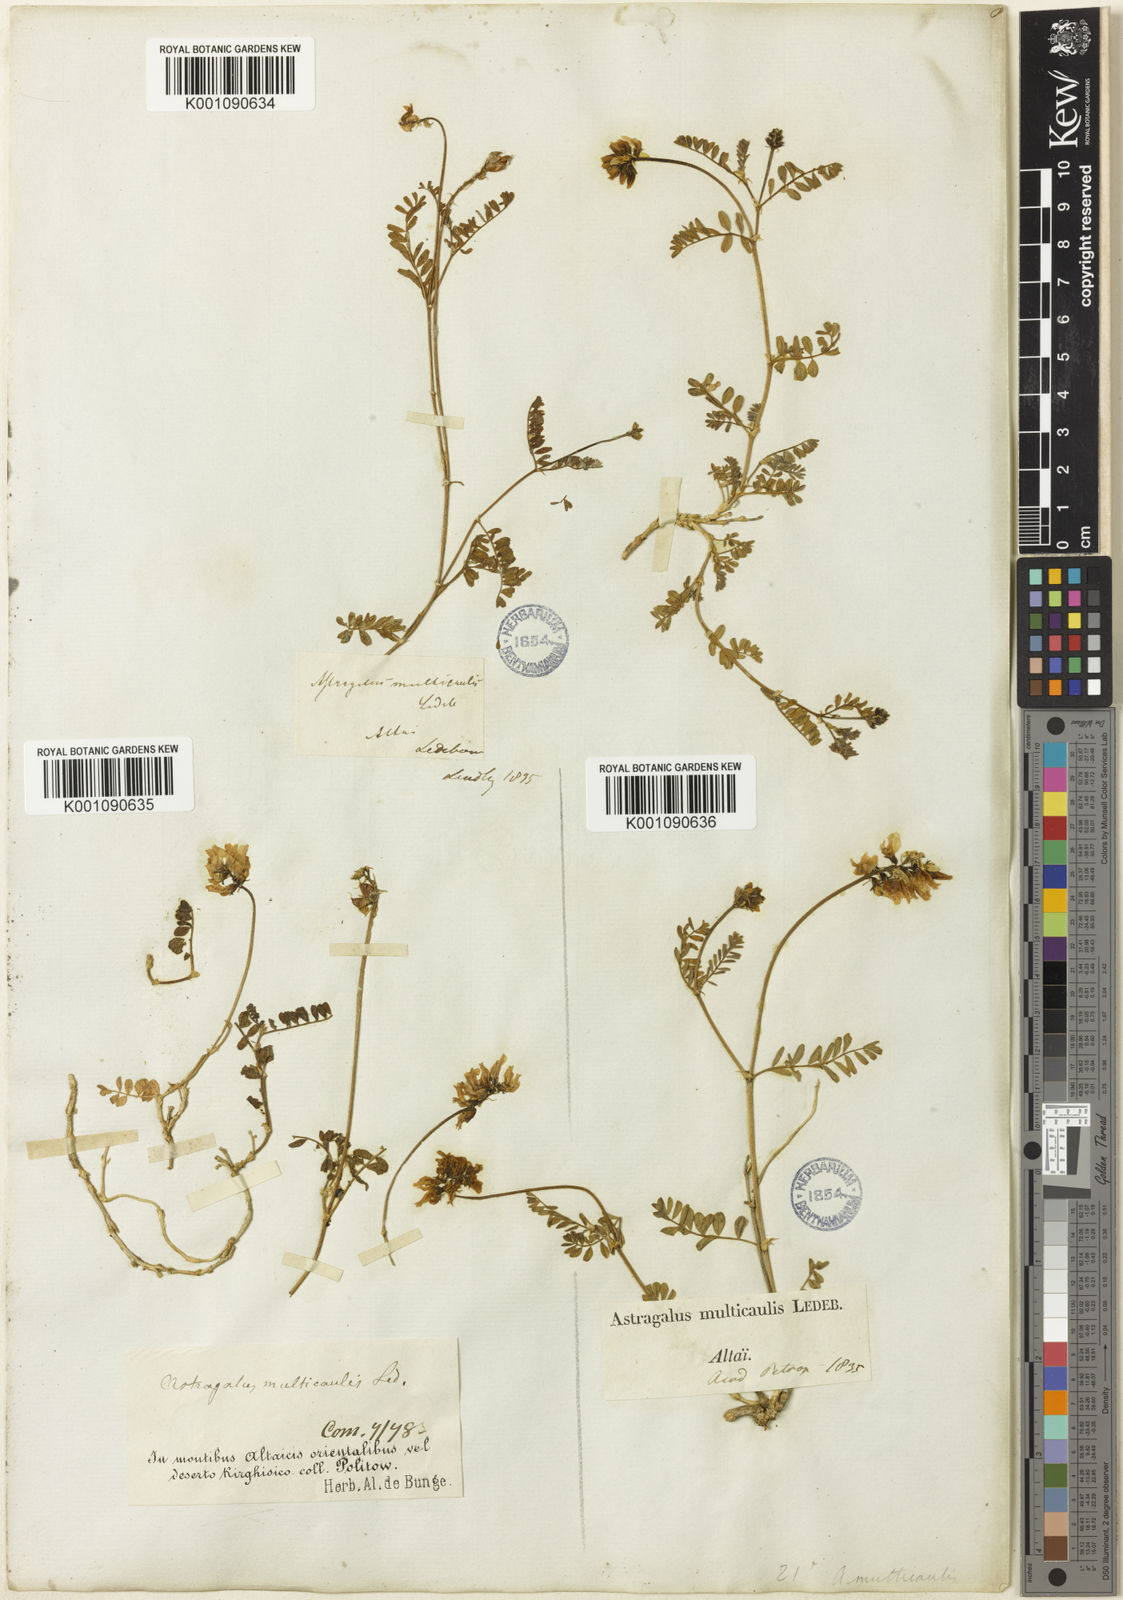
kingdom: Plantae
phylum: Tracheophyta
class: Magnoliopsida
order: Fabales
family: Fabaceae
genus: Astragalus
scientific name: Astragalus
